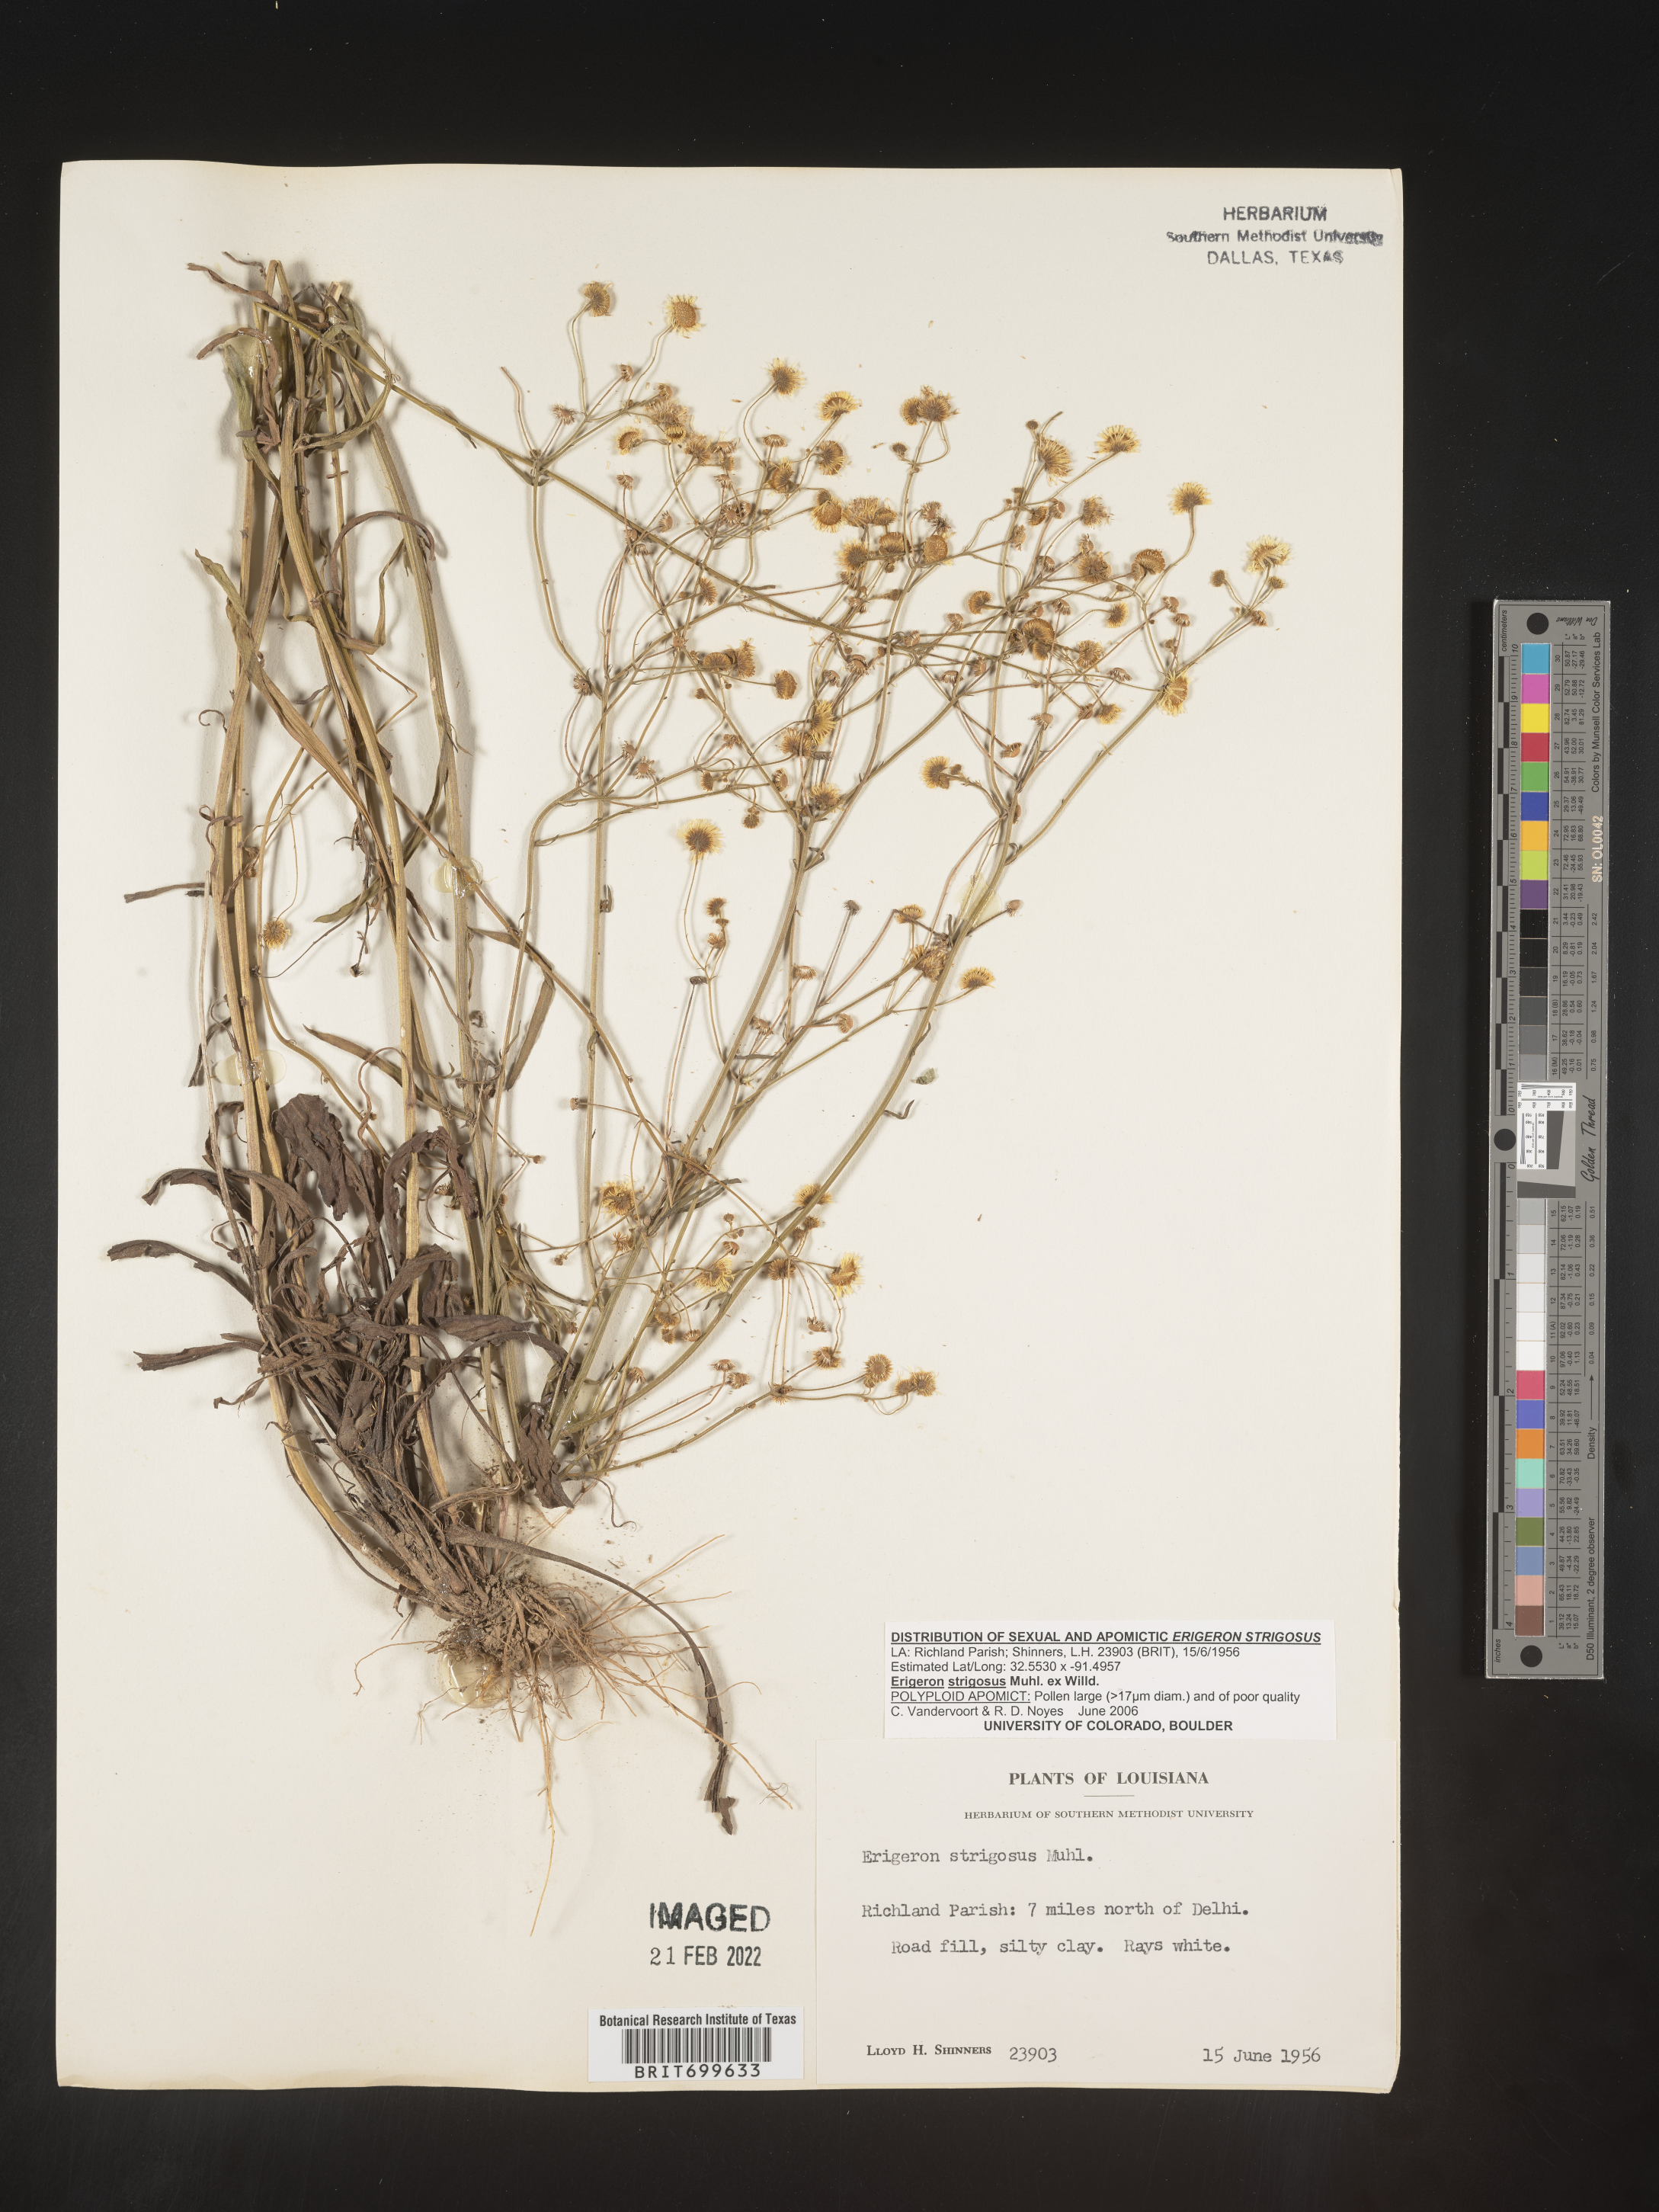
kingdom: Plantae
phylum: Tracheophyta
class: Magnoliopsida
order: Asterales
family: Asteraceae
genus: Erigeron
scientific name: Erigeron strigosus
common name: Common eastern fleabane
